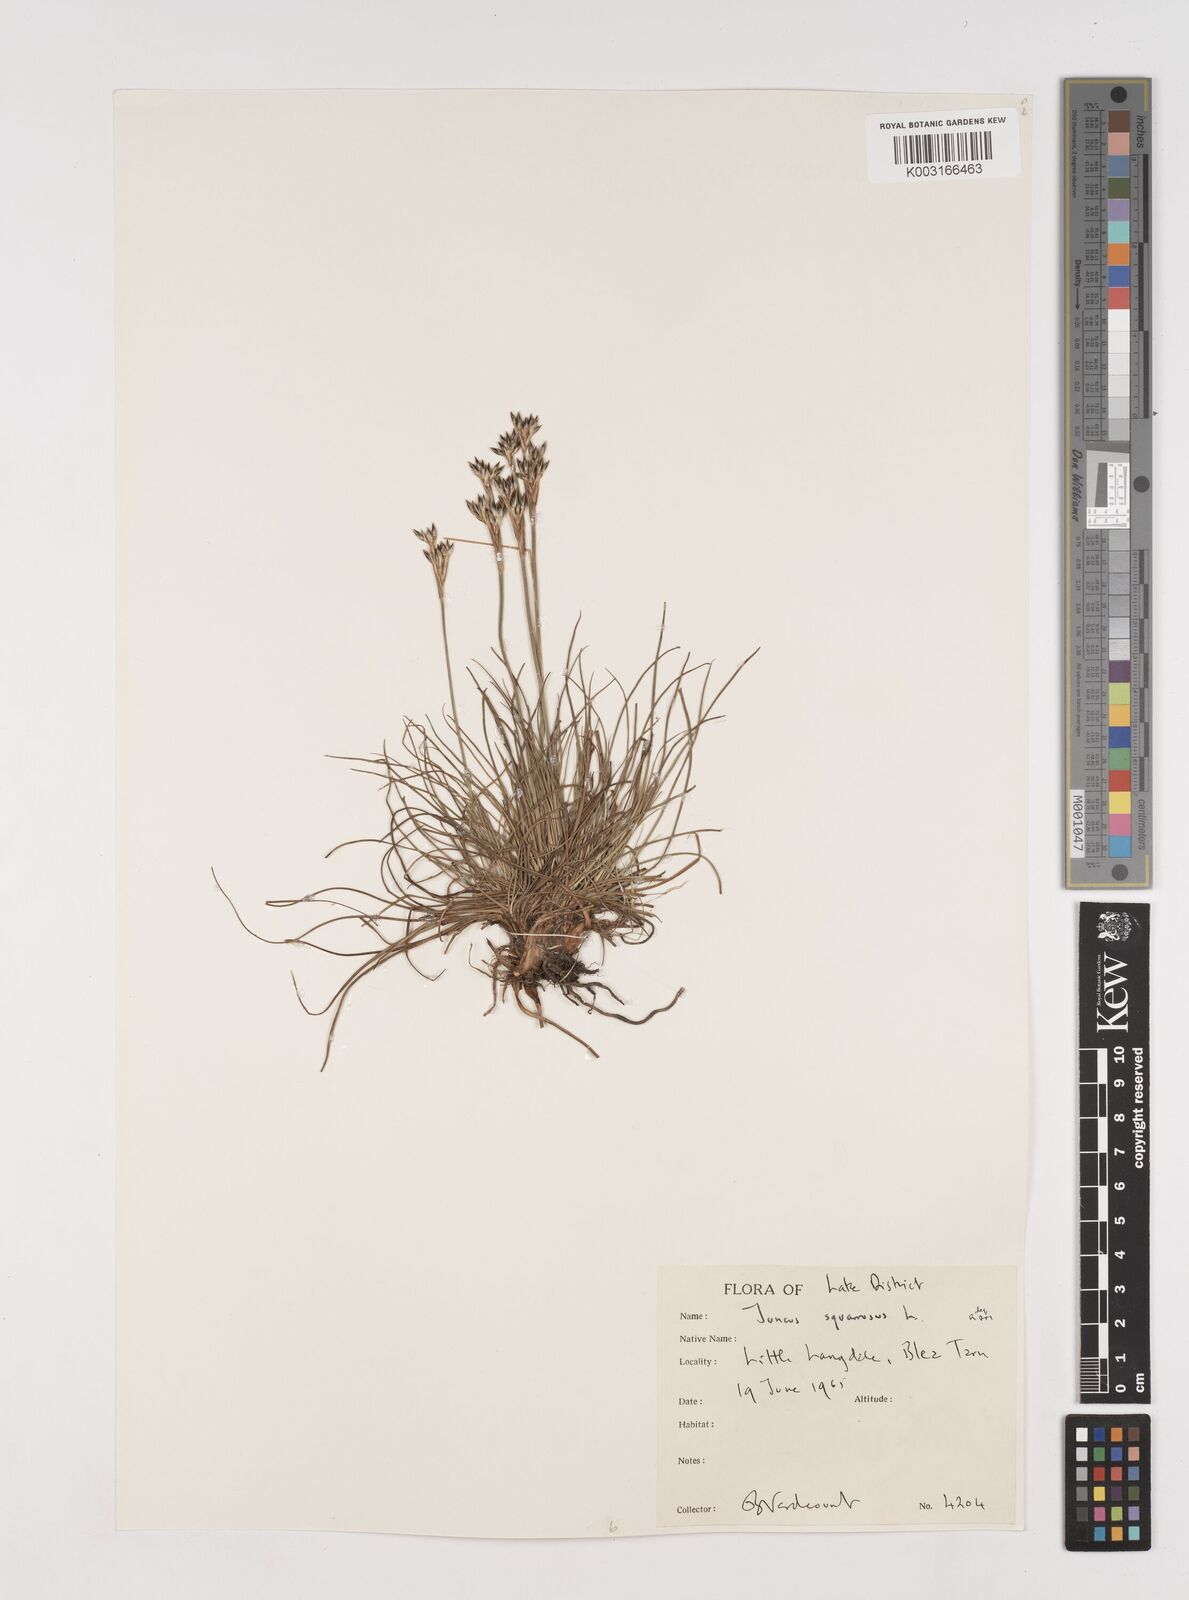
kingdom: Plantae
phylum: Tracheophyta
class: Liliopsida
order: Poales
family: Juncaceae
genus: Juncus
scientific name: Juncus squarrosus
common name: Heath rush
